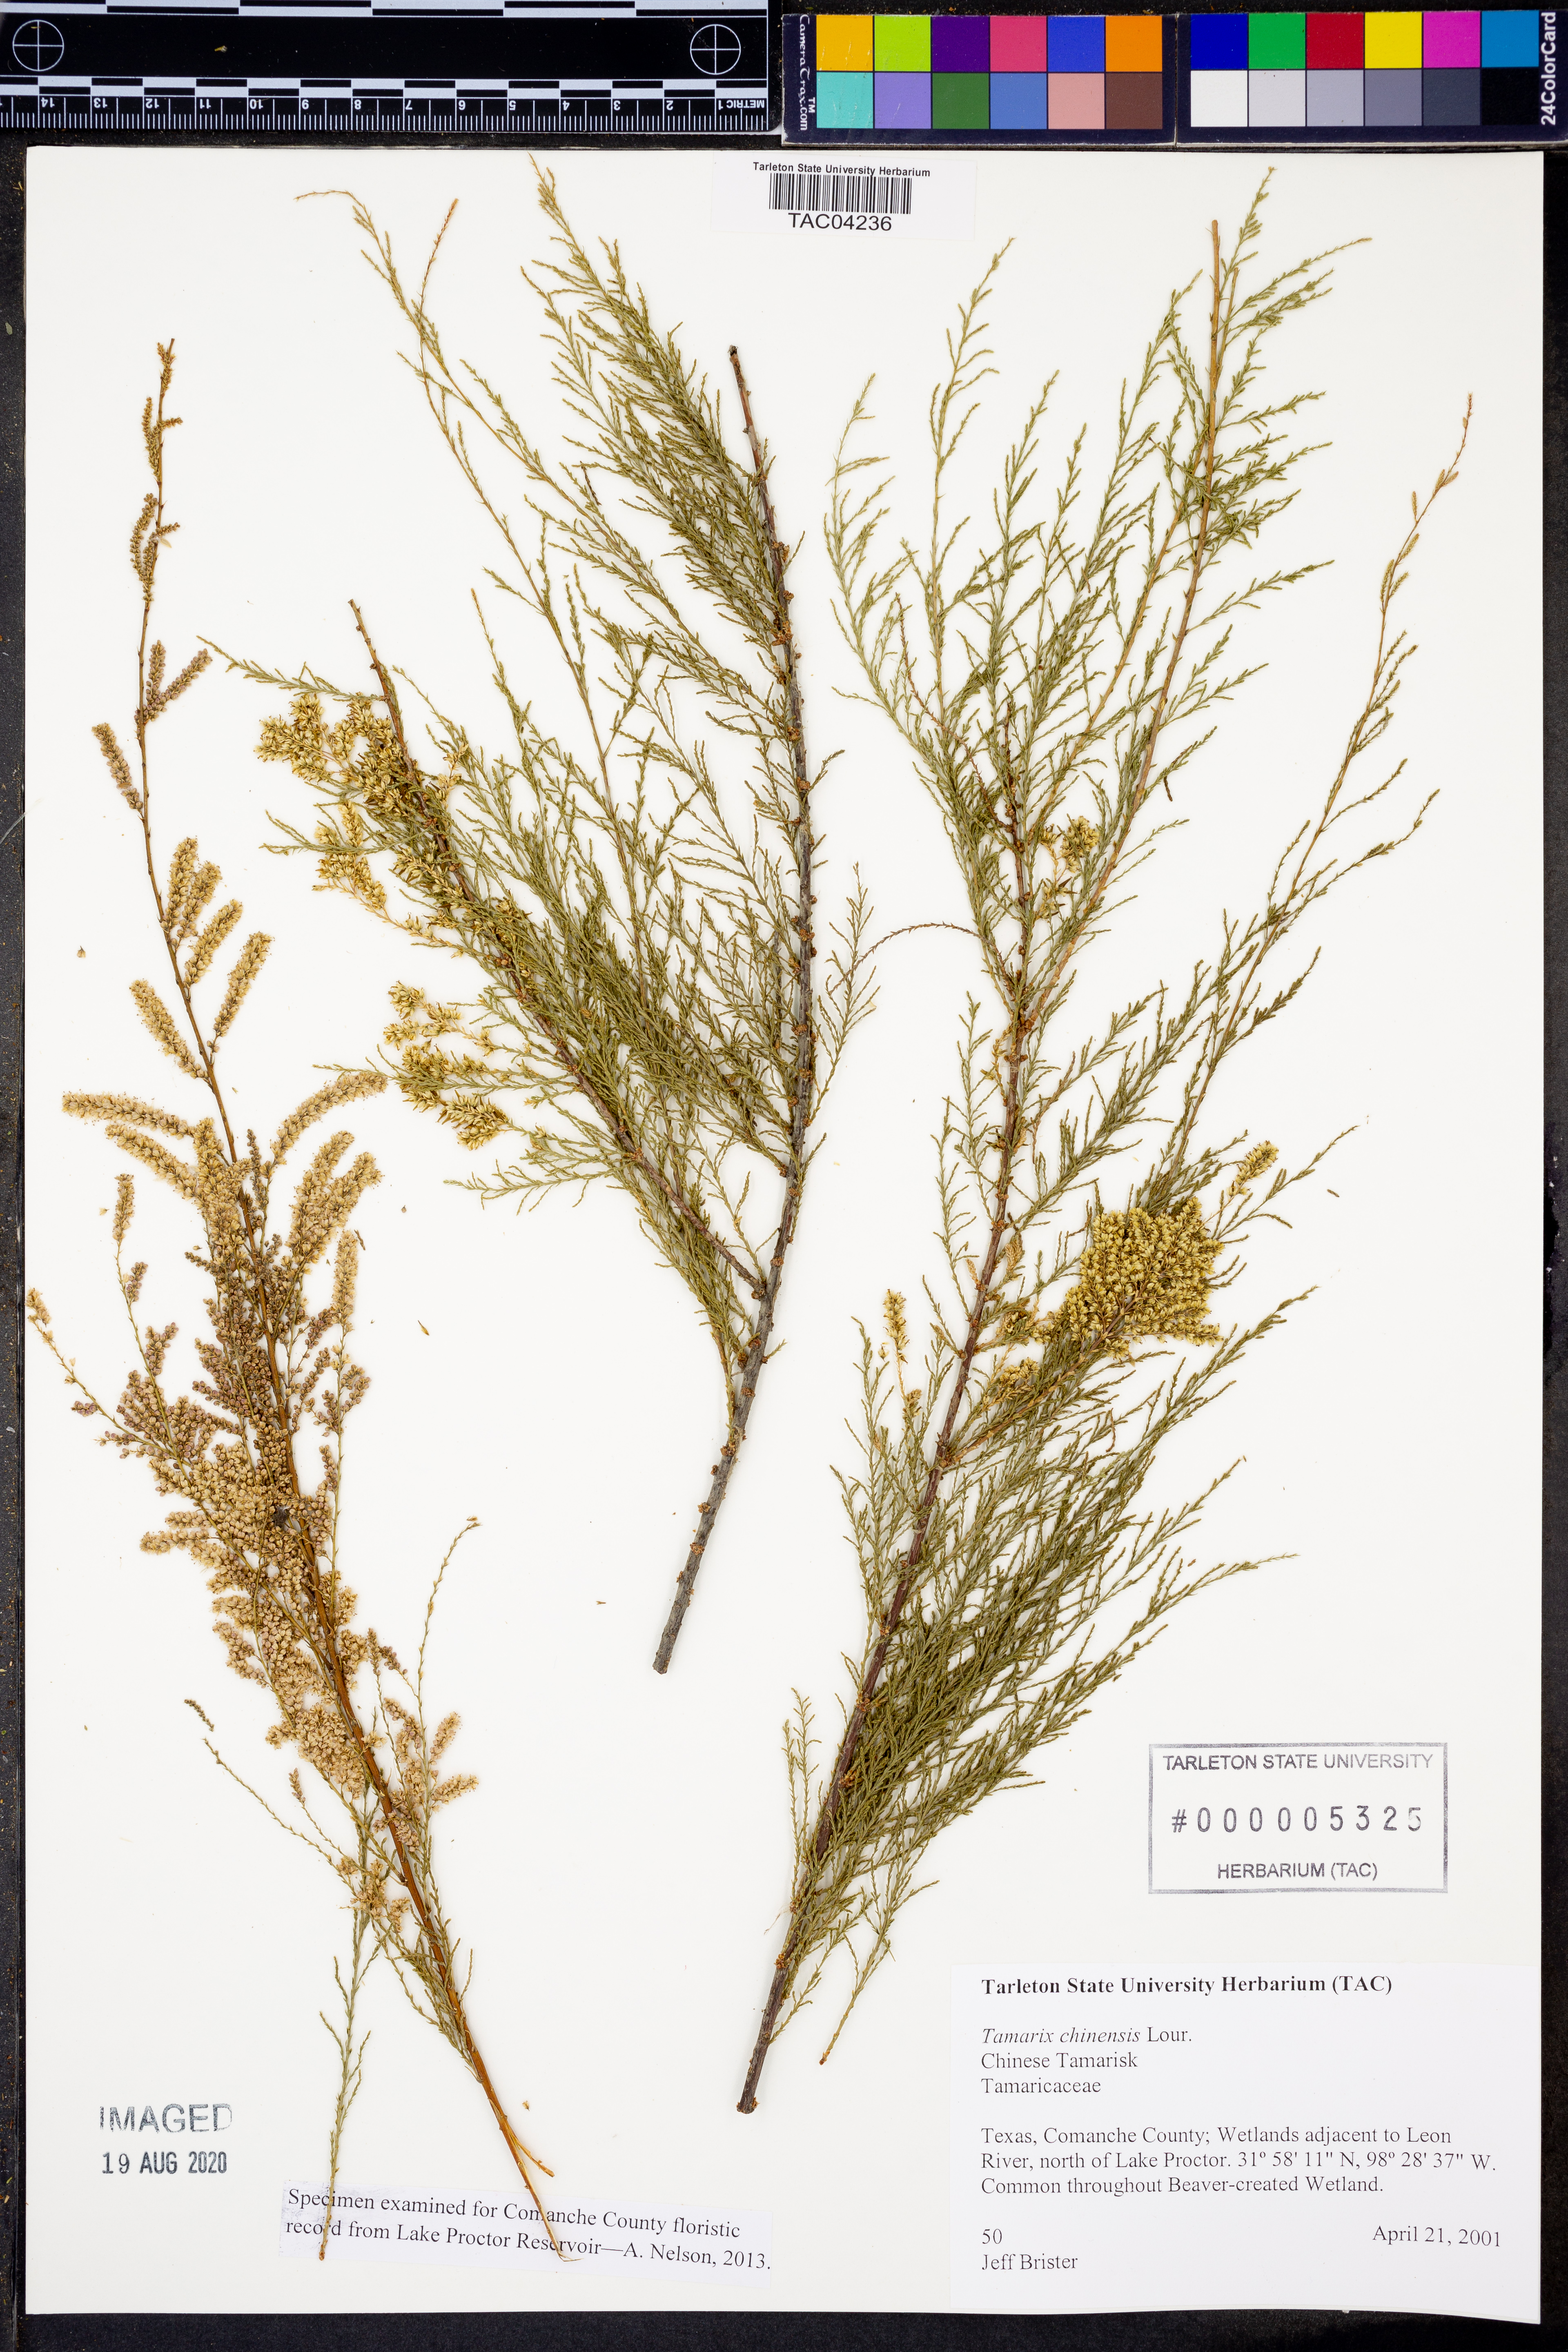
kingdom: Plantae
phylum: Tracheophyta
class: Magnoliopsida
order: Caryophyllales
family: Tamaricaceae
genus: Tamarix
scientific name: Tamarix chinensis
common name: Chinese tamarisk
